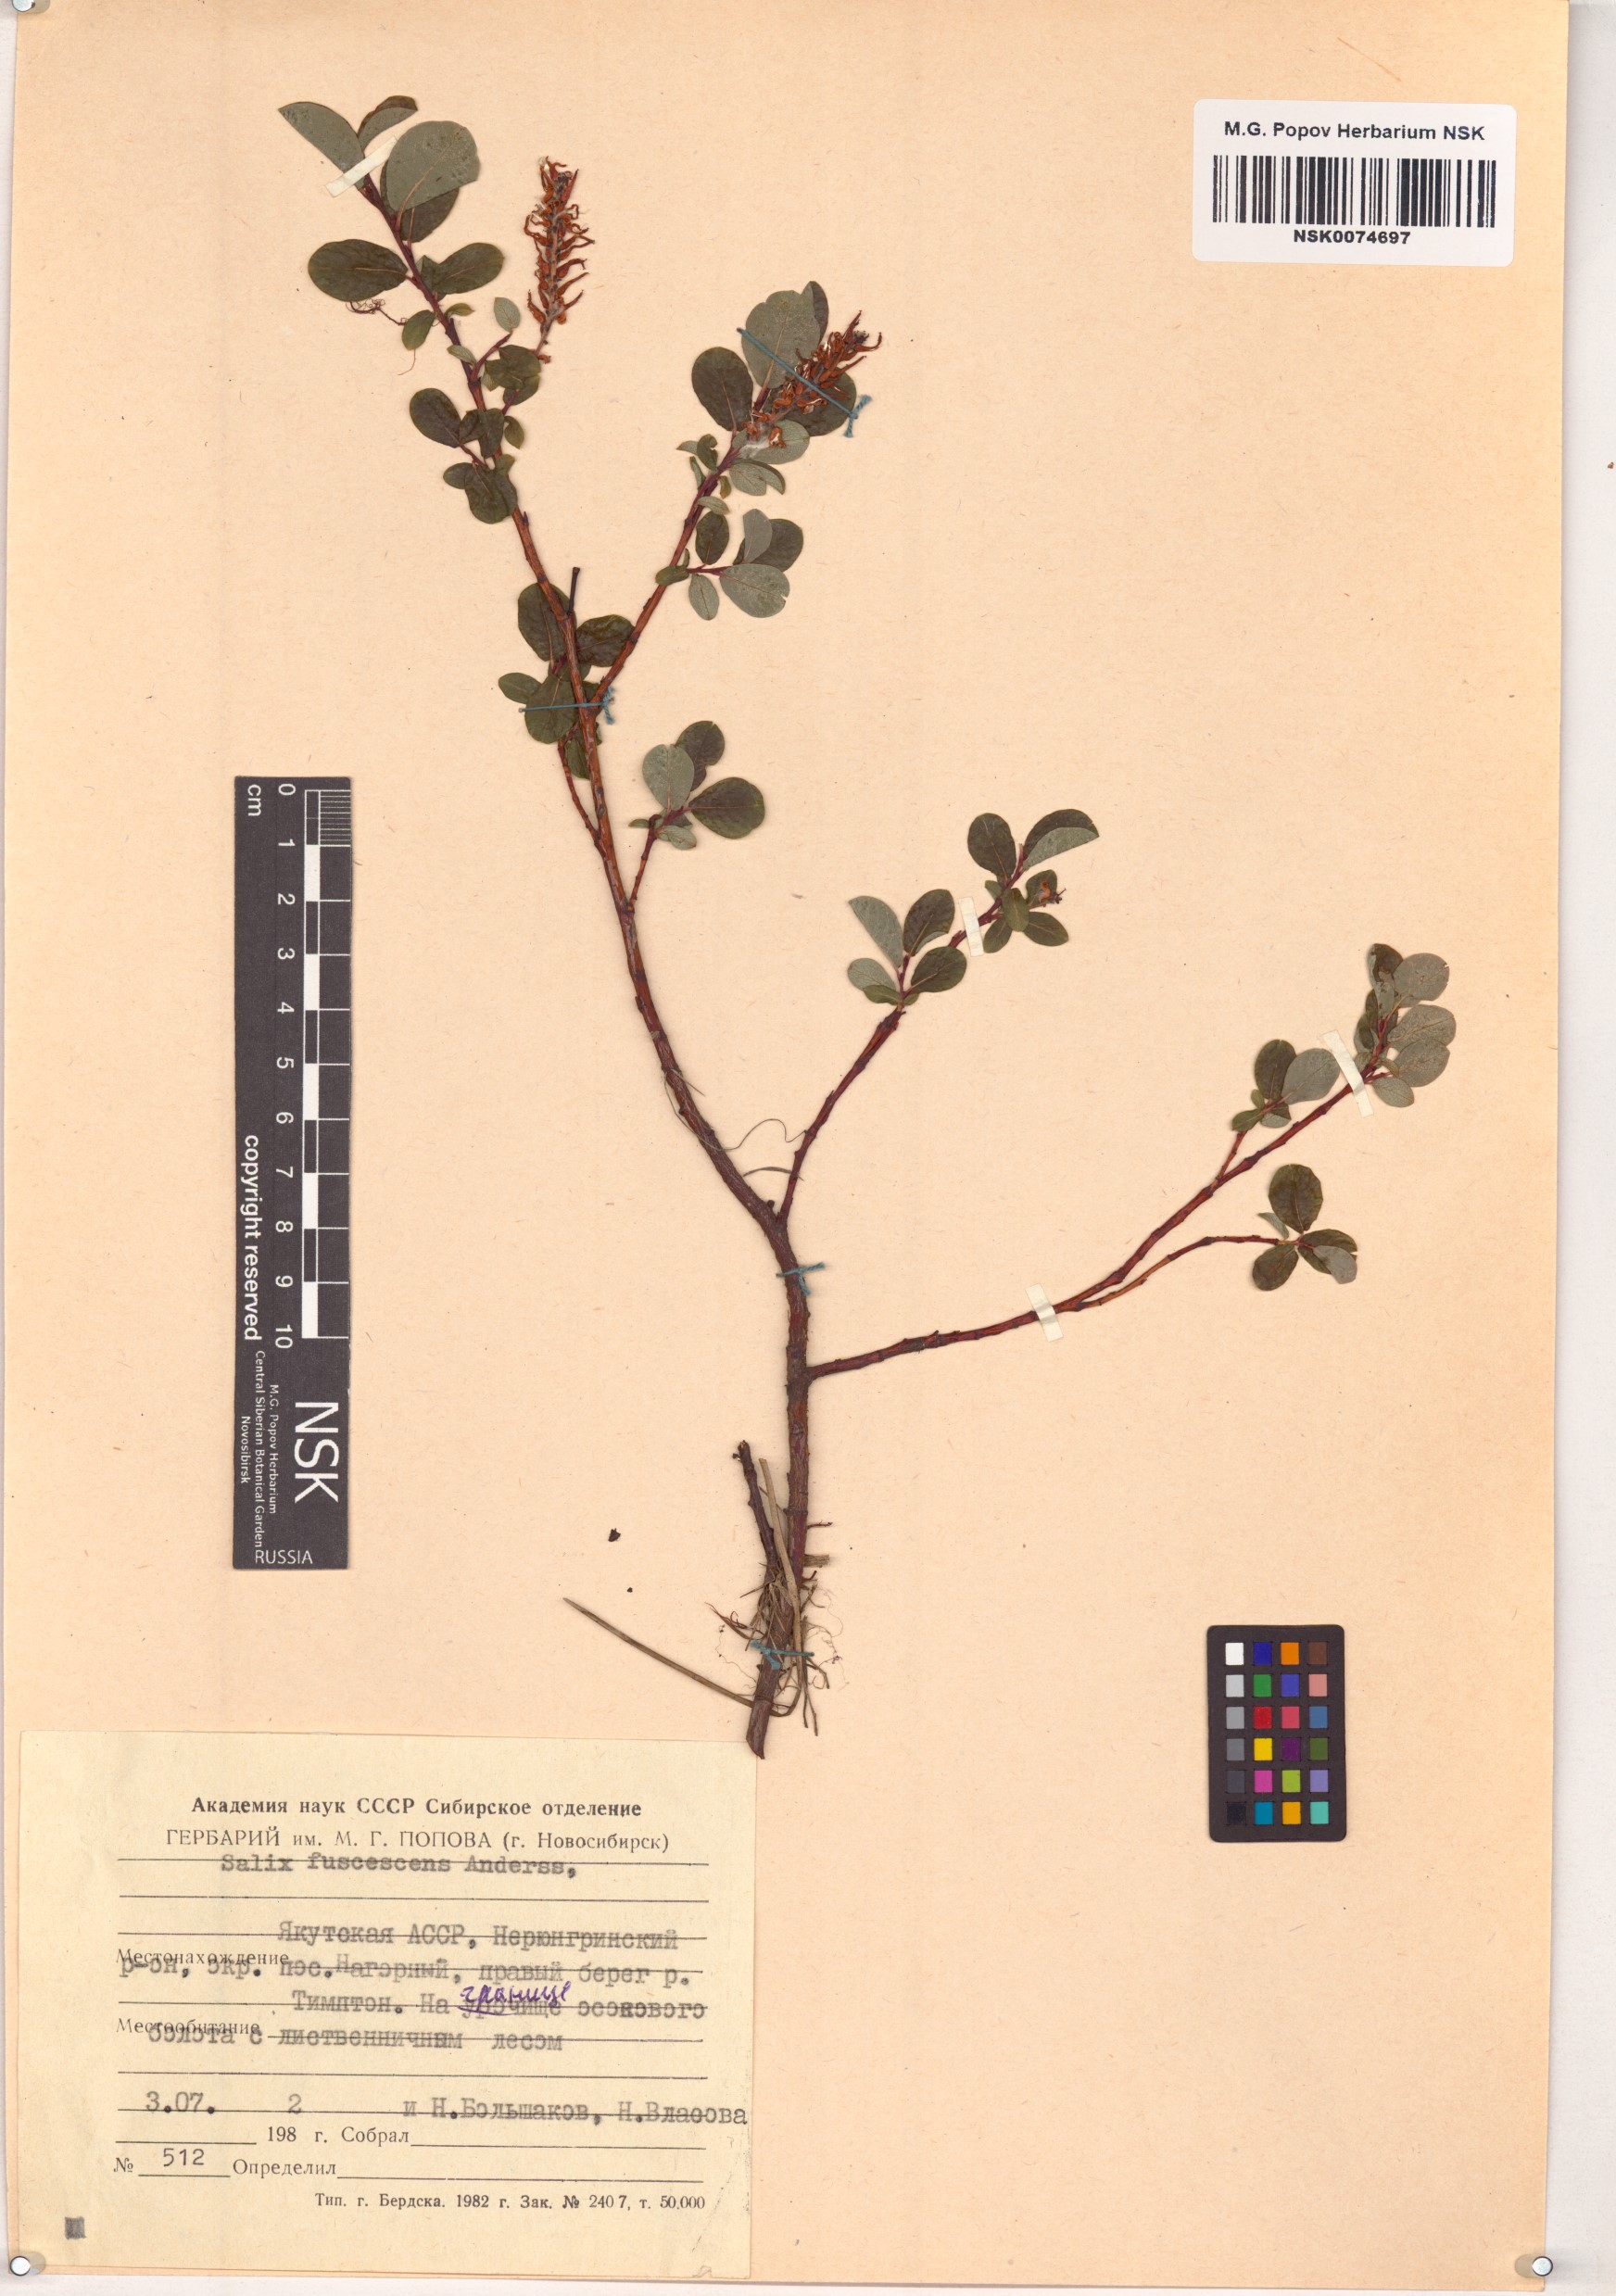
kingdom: Plantae
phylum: Tracheophyta
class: Magnoliopsida
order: Malpighiales
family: Salicaceae
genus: Salix
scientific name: Salix fuscescens
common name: Brownish willow
